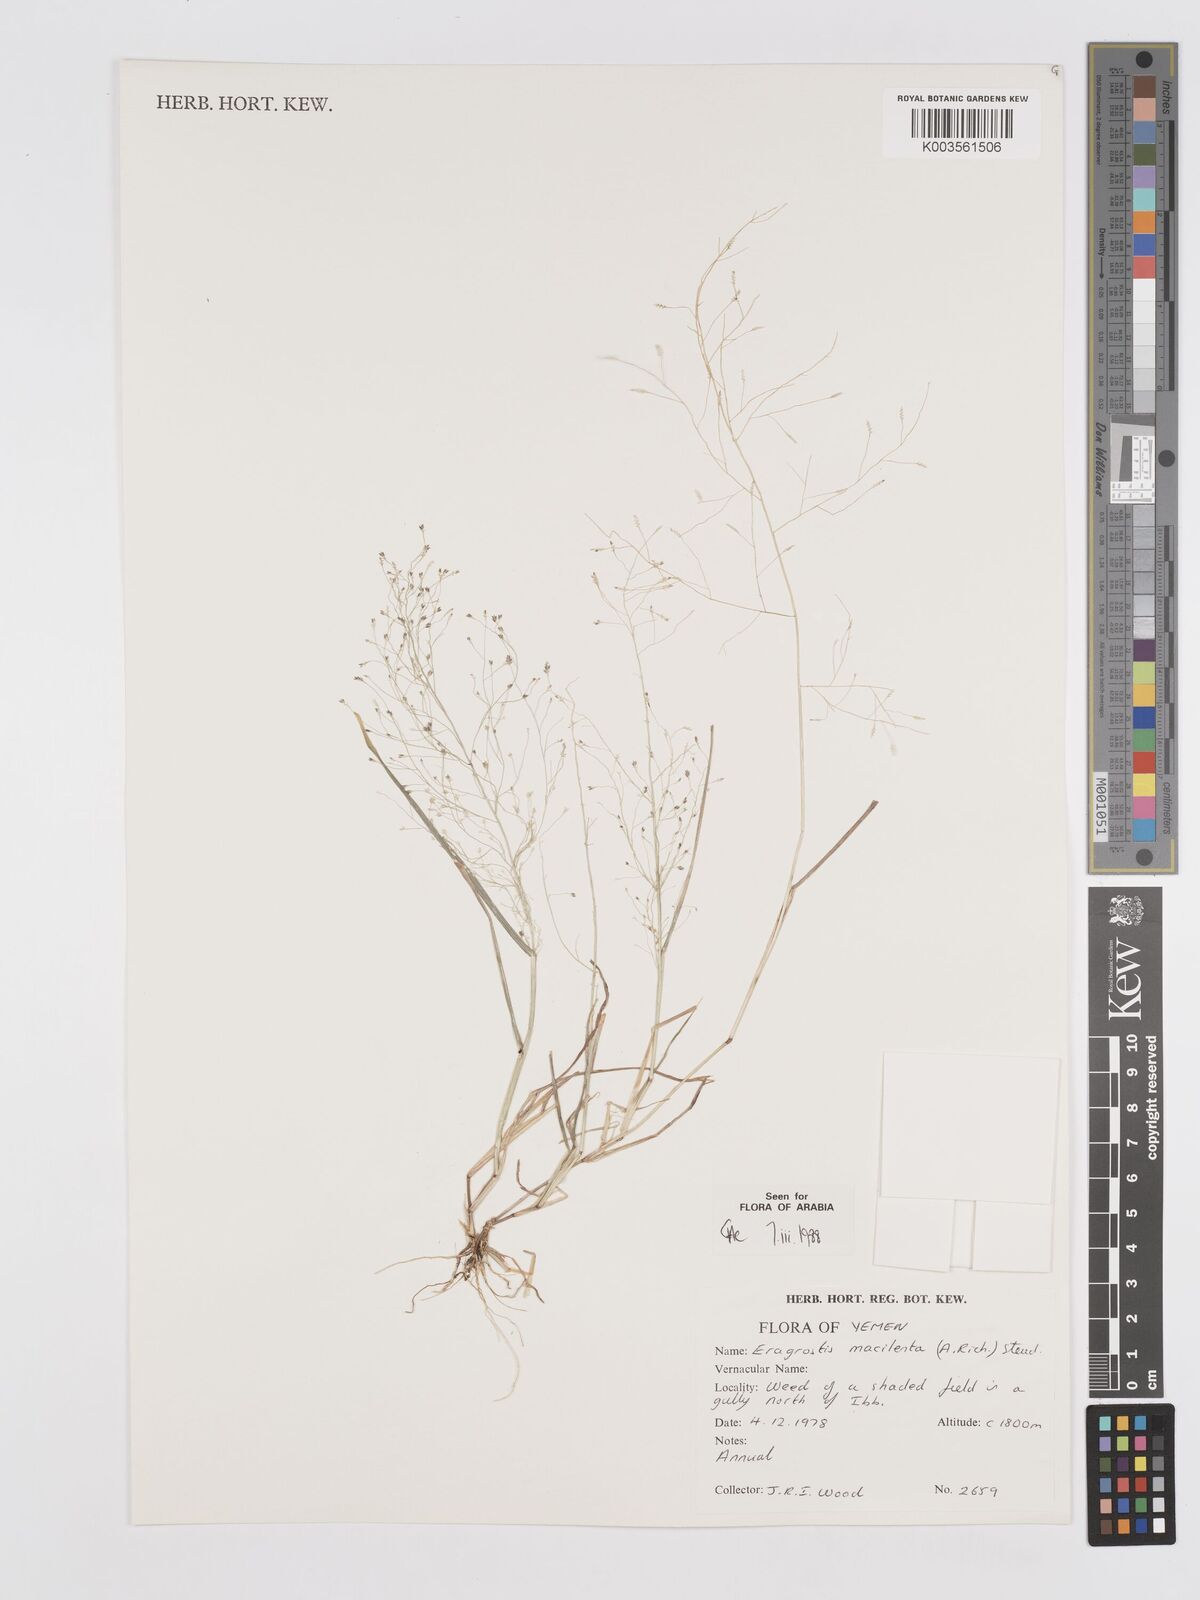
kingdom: Plantae
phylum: Tracheophyta
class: Liliopsida
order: Poales
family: Poaceae
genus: Eragrostis
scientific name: Eragrostis macilenta
